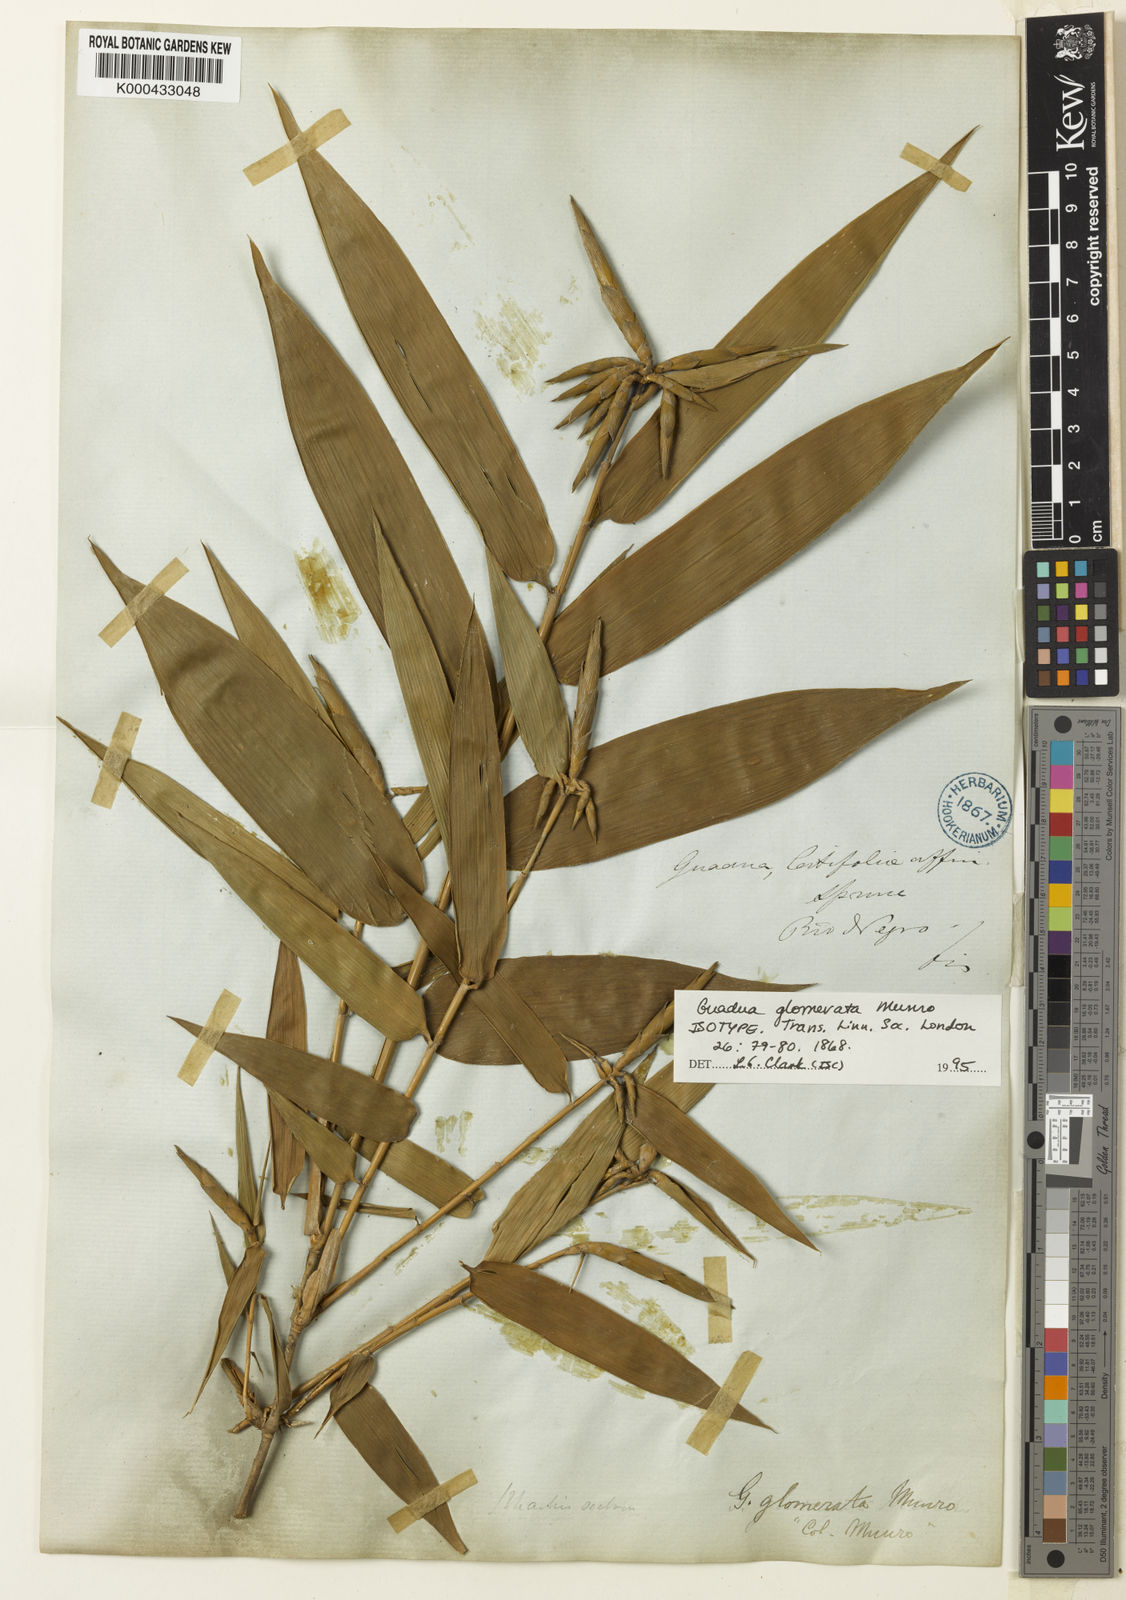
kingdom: Plantae
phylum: Tracheophyta
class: Liliopsida
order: Poales
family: Poaceae
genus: Guadua
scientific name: Guadua glomerata
